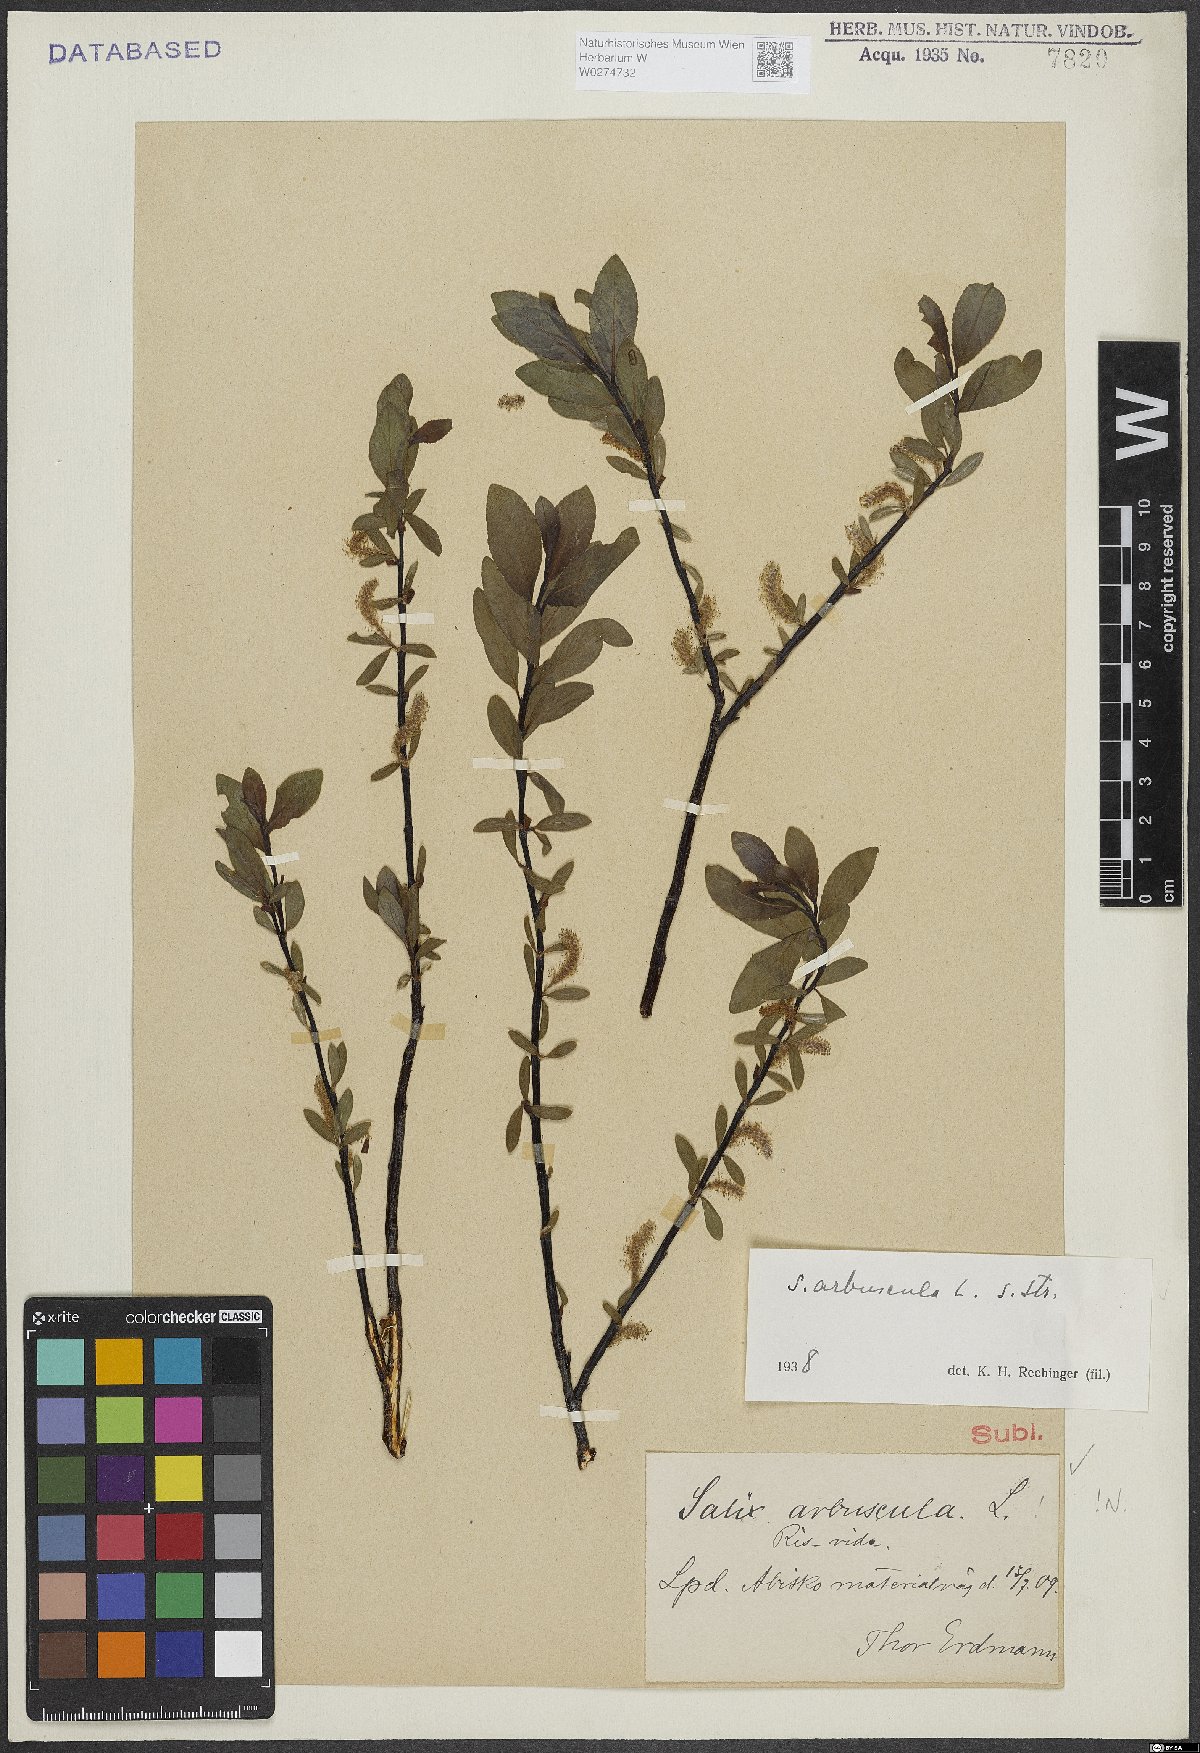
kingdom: Plantae
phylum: Tracheophyta
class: Magnoliopsida
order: Malpighiales
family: Salicaceae
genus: Salix
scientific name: Salix arbuscula
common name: Mountain willow
